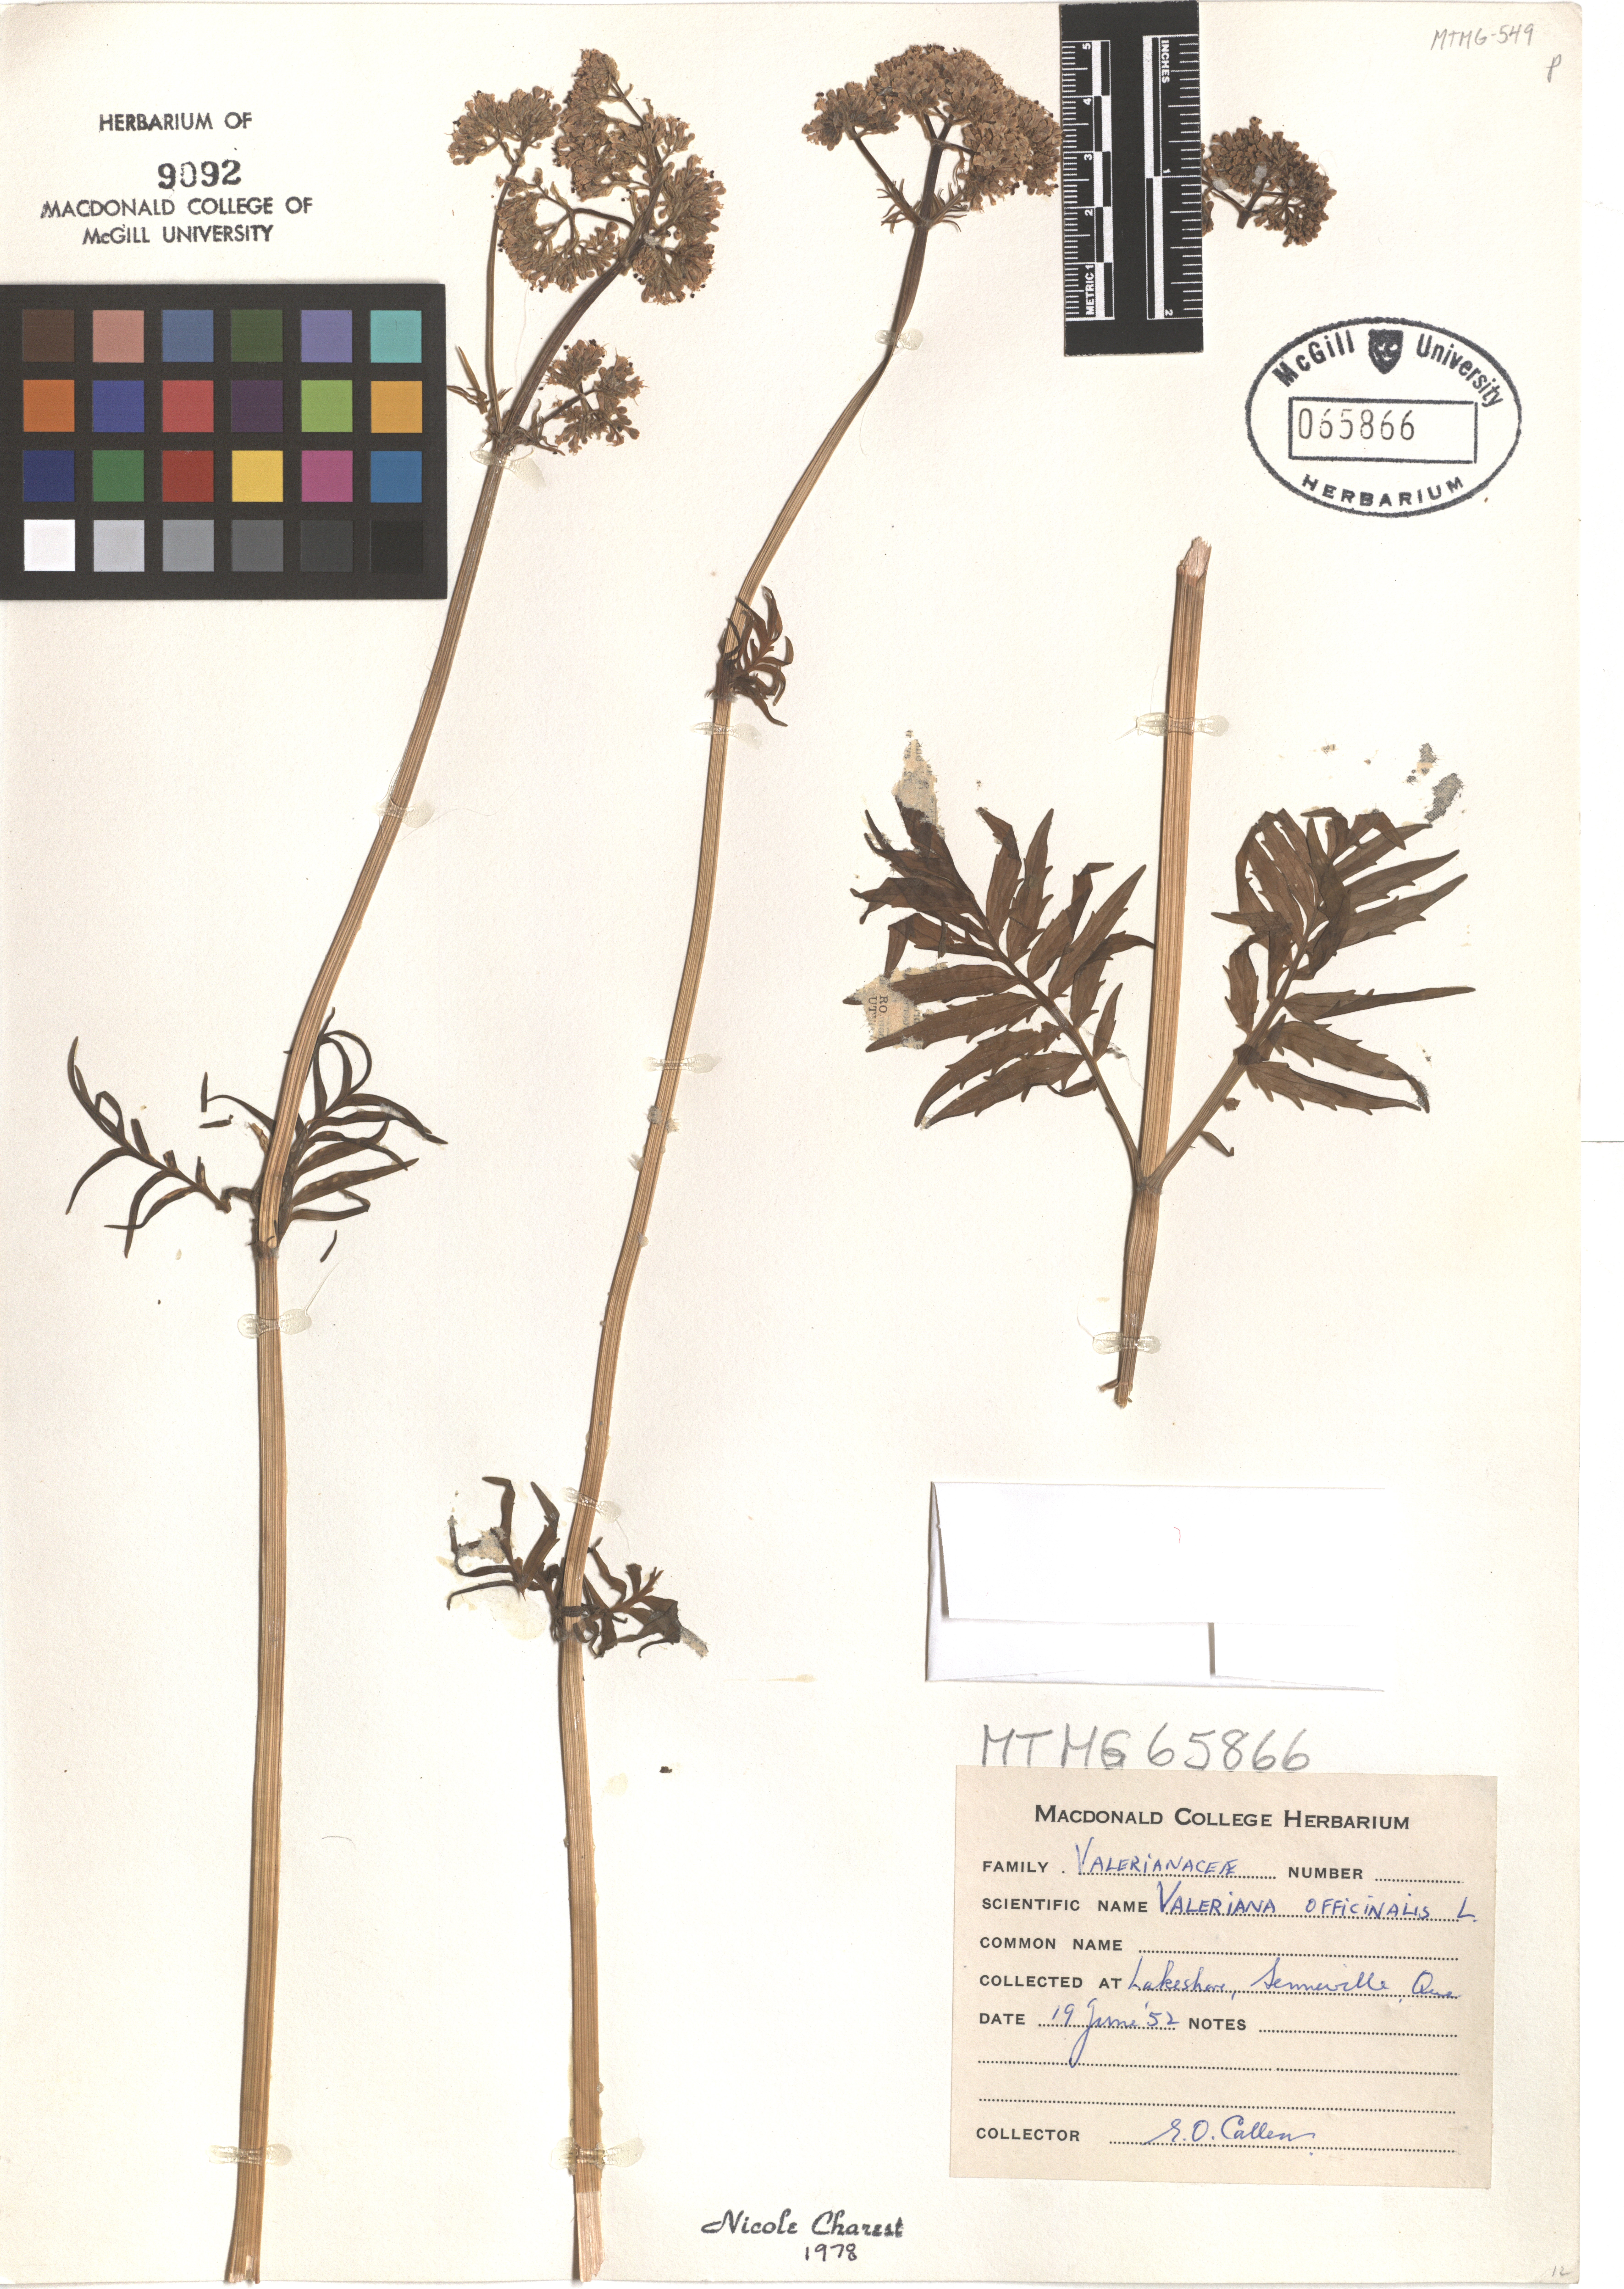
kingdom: Plantae
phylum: Tracheophyta
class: Magnoliopsida
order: Dipsacales
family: Caprifoliaceae
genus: Valeriana
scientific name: Valeriana officinalis
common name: Common valerian
